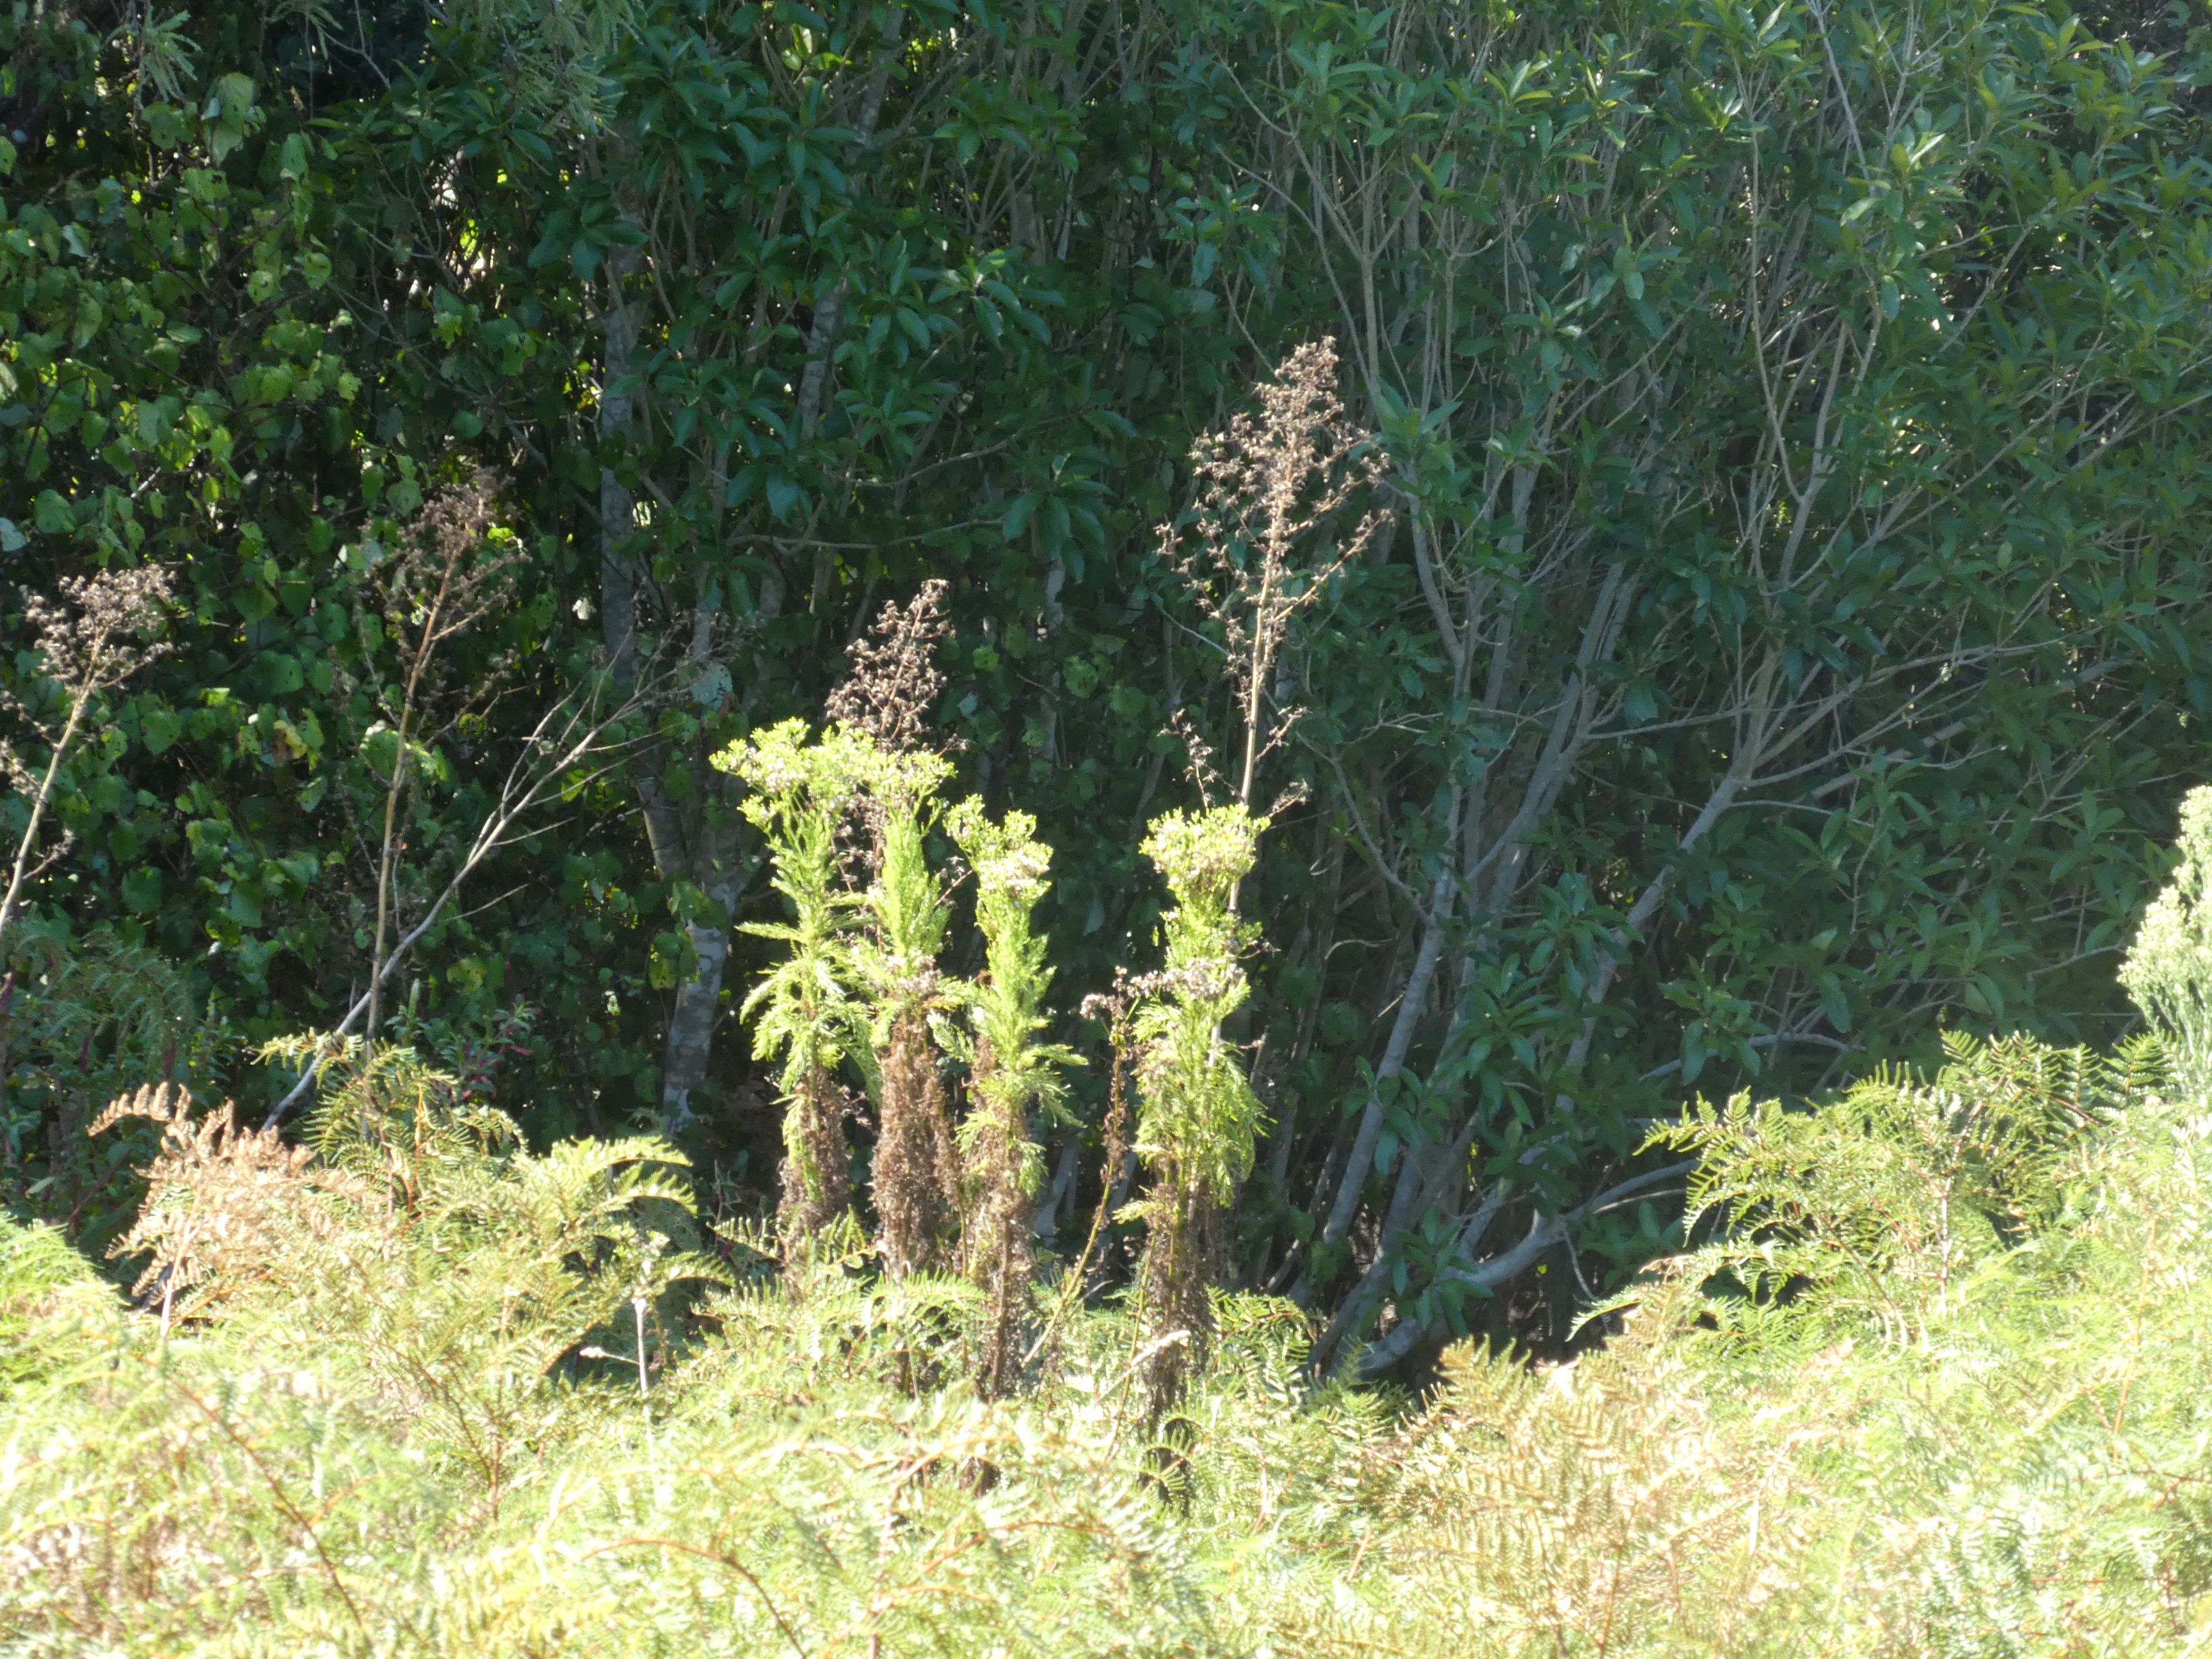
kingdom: Plantae
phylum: Tracheophyta
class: Magnoliopsida
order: Asterales
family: Asteraceae
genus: Lactuca
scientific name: Lactuca virosa
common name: Great lettuce
